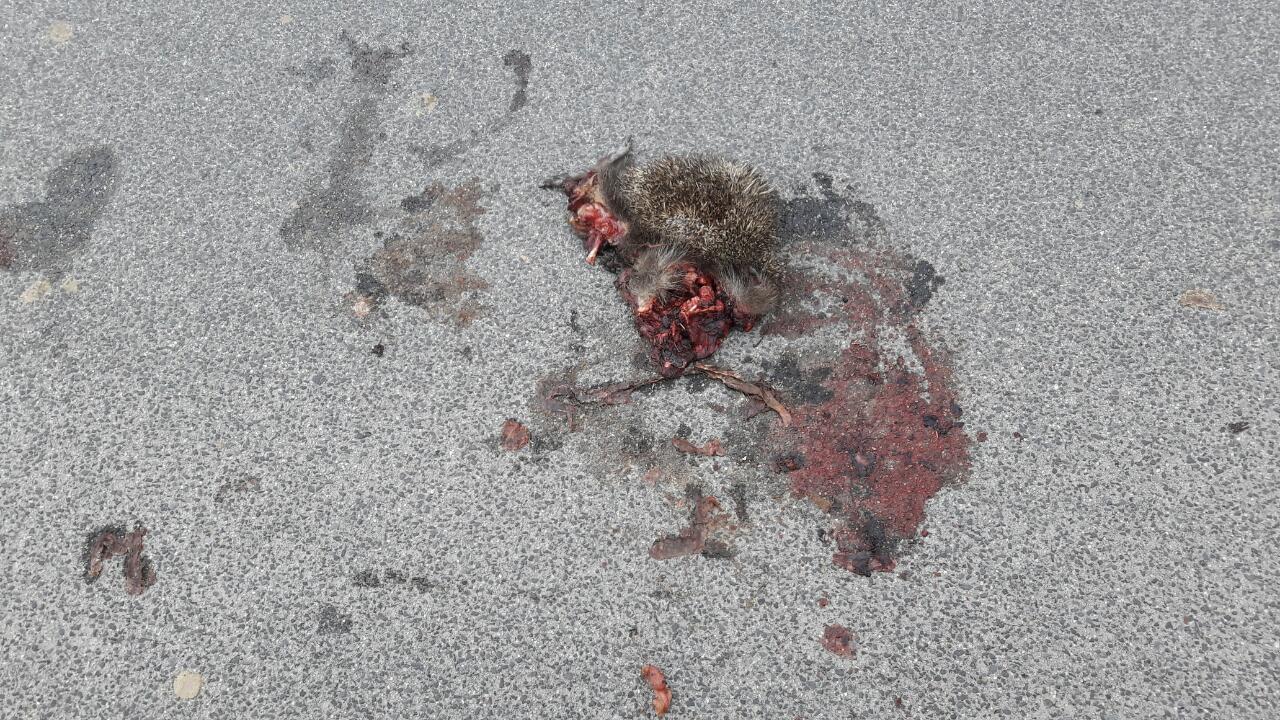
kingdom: Animalia
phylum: Chordata
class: Mammalia
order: Erinaceomorpha
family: Erinaceidae
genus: Erinaceus
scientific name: Erinaceus
